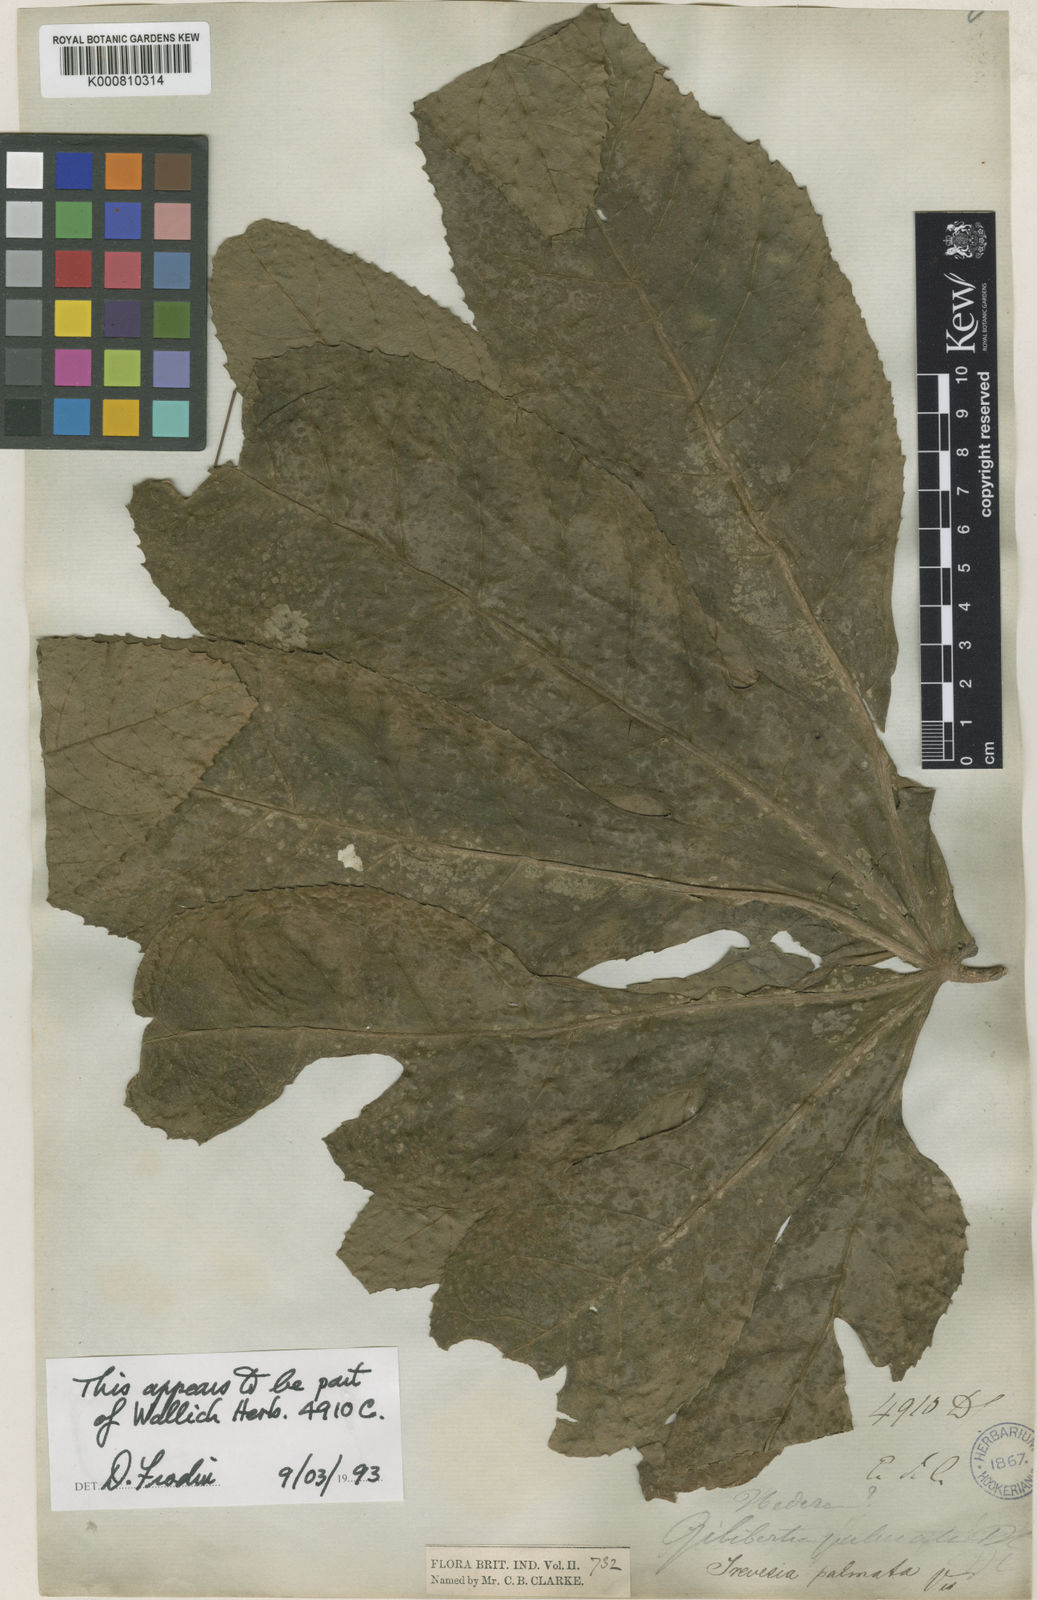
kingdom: Plantae
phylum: Tracheophyta
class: Magnoliopsida
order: Apiales
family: Araliaceae
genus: Trevesia
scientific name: Trevesia palmata
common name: Snowflakeplant
